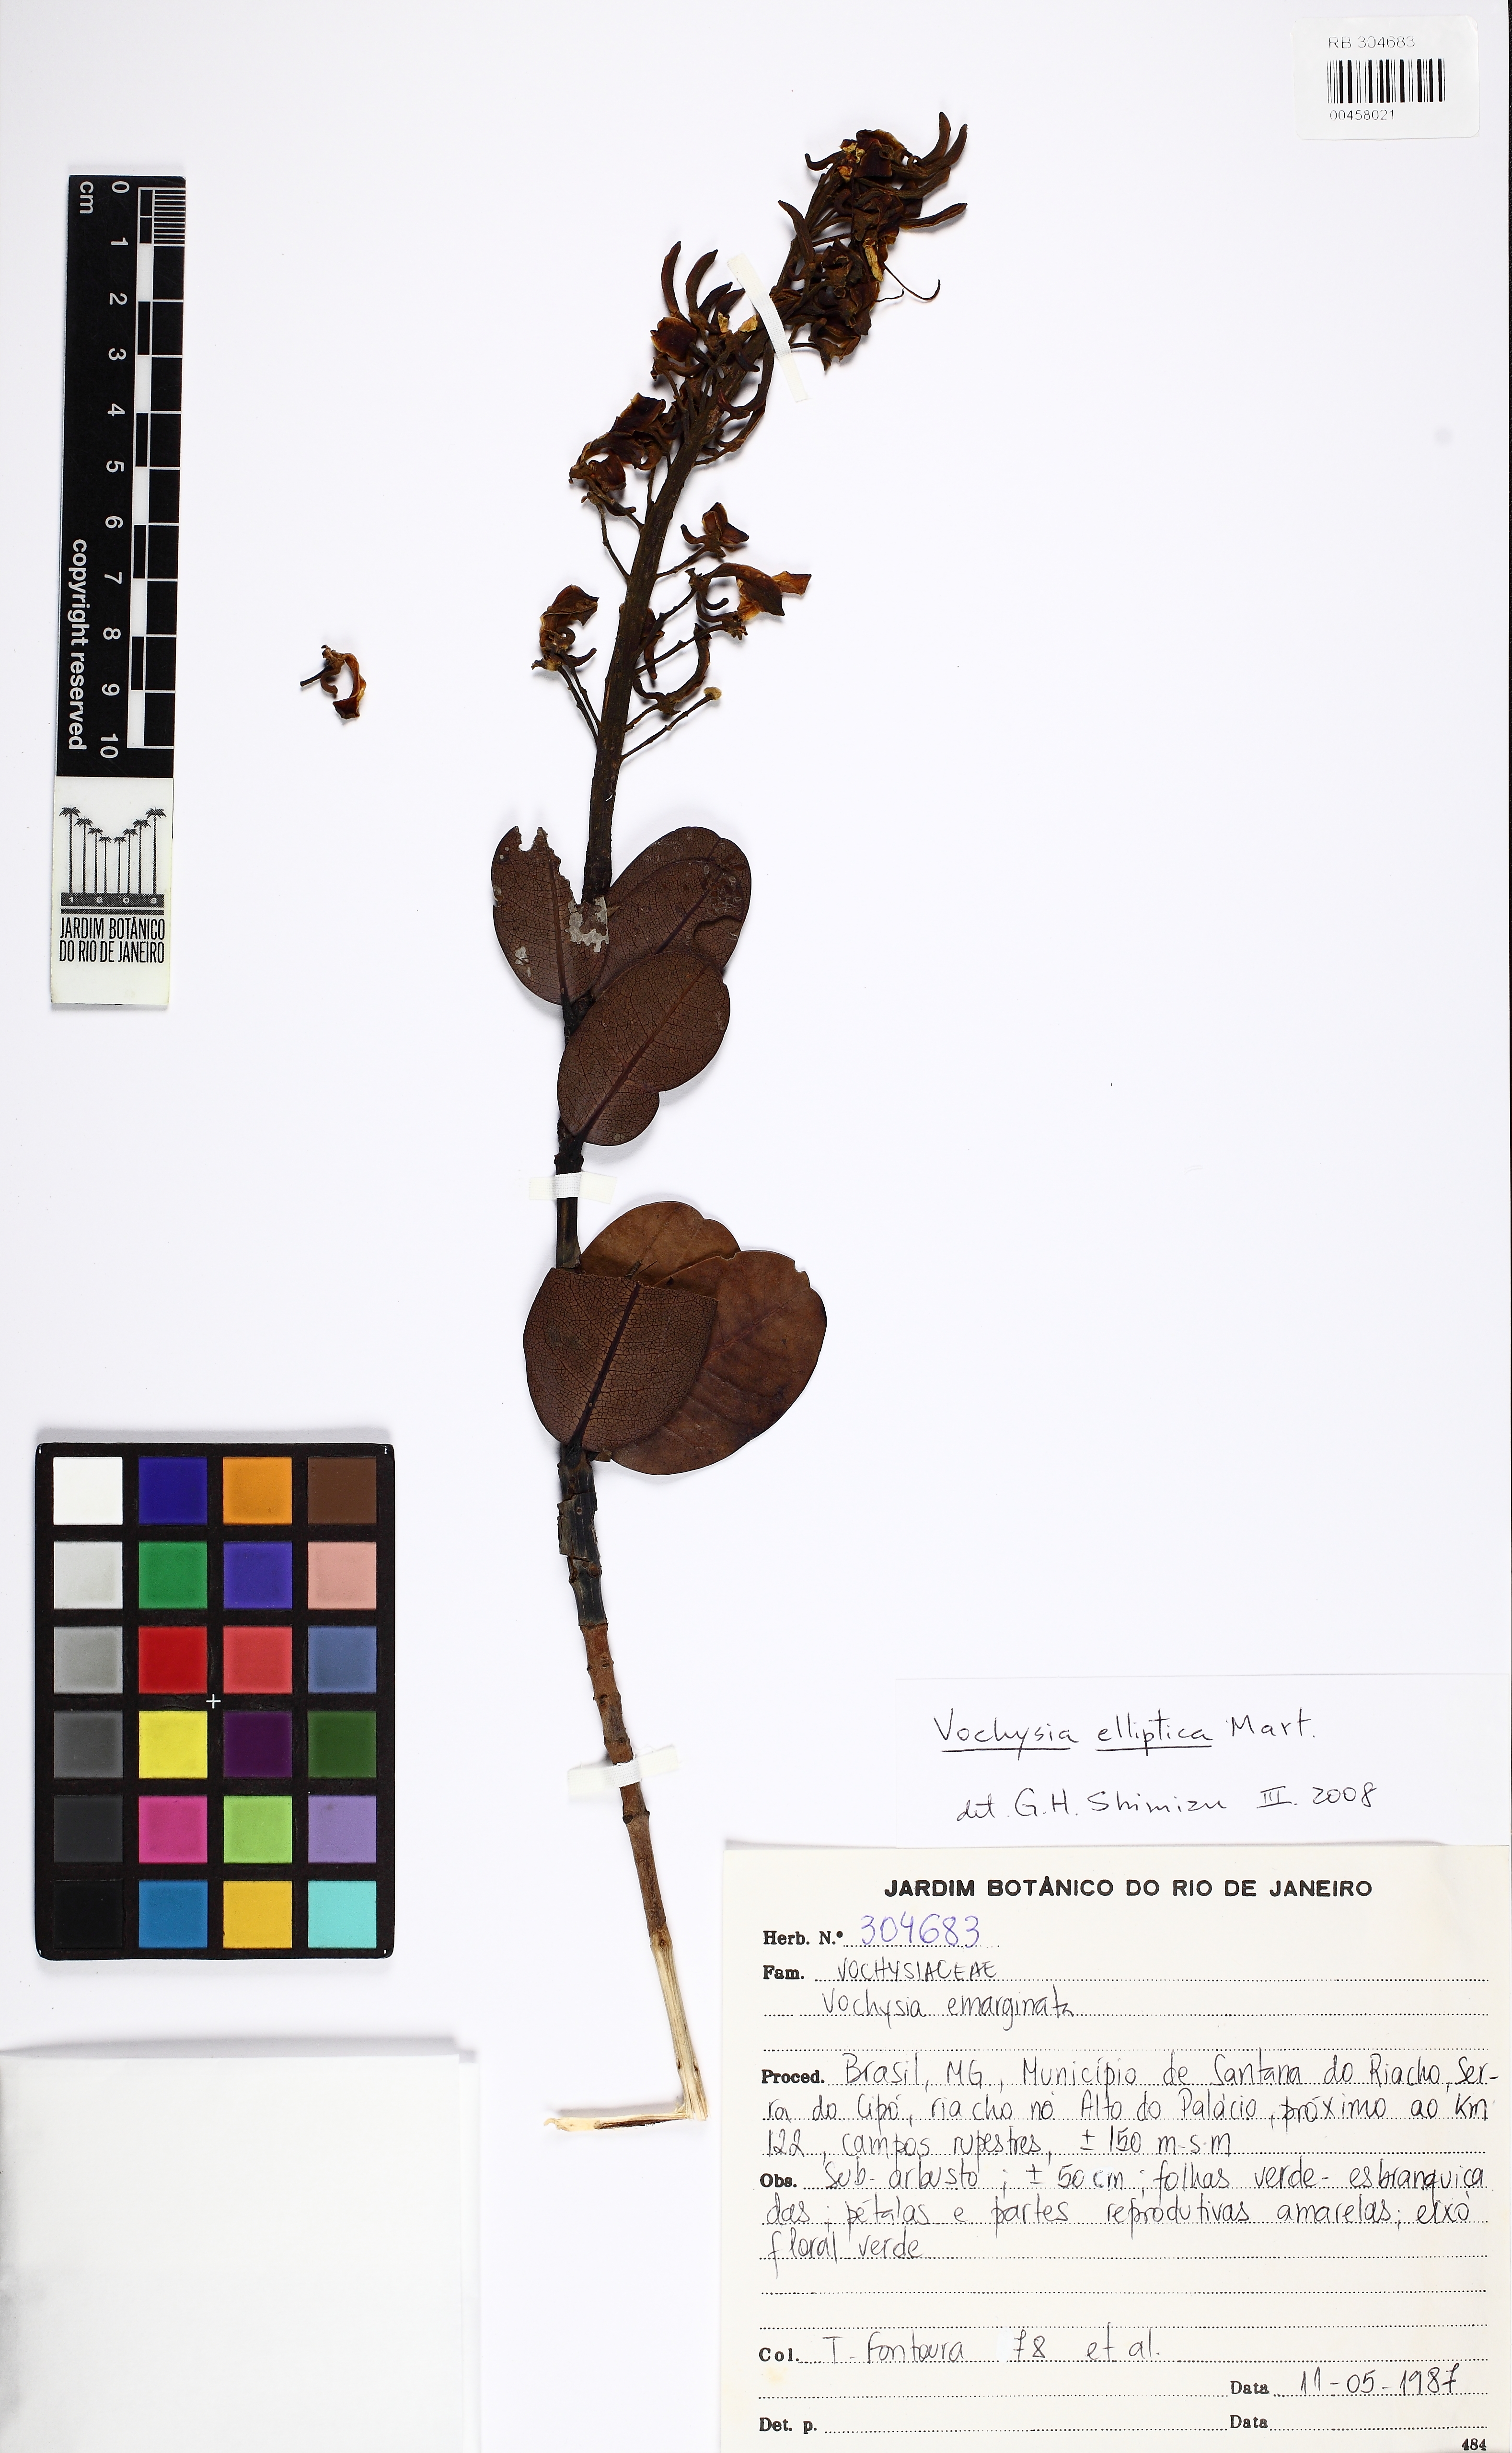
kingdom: Plantae
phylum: Tracheophyta
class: Magnoliopsida
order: Myrtales
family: Vochysiaceae
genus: Vochysia
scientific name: Vochysia elliptica
